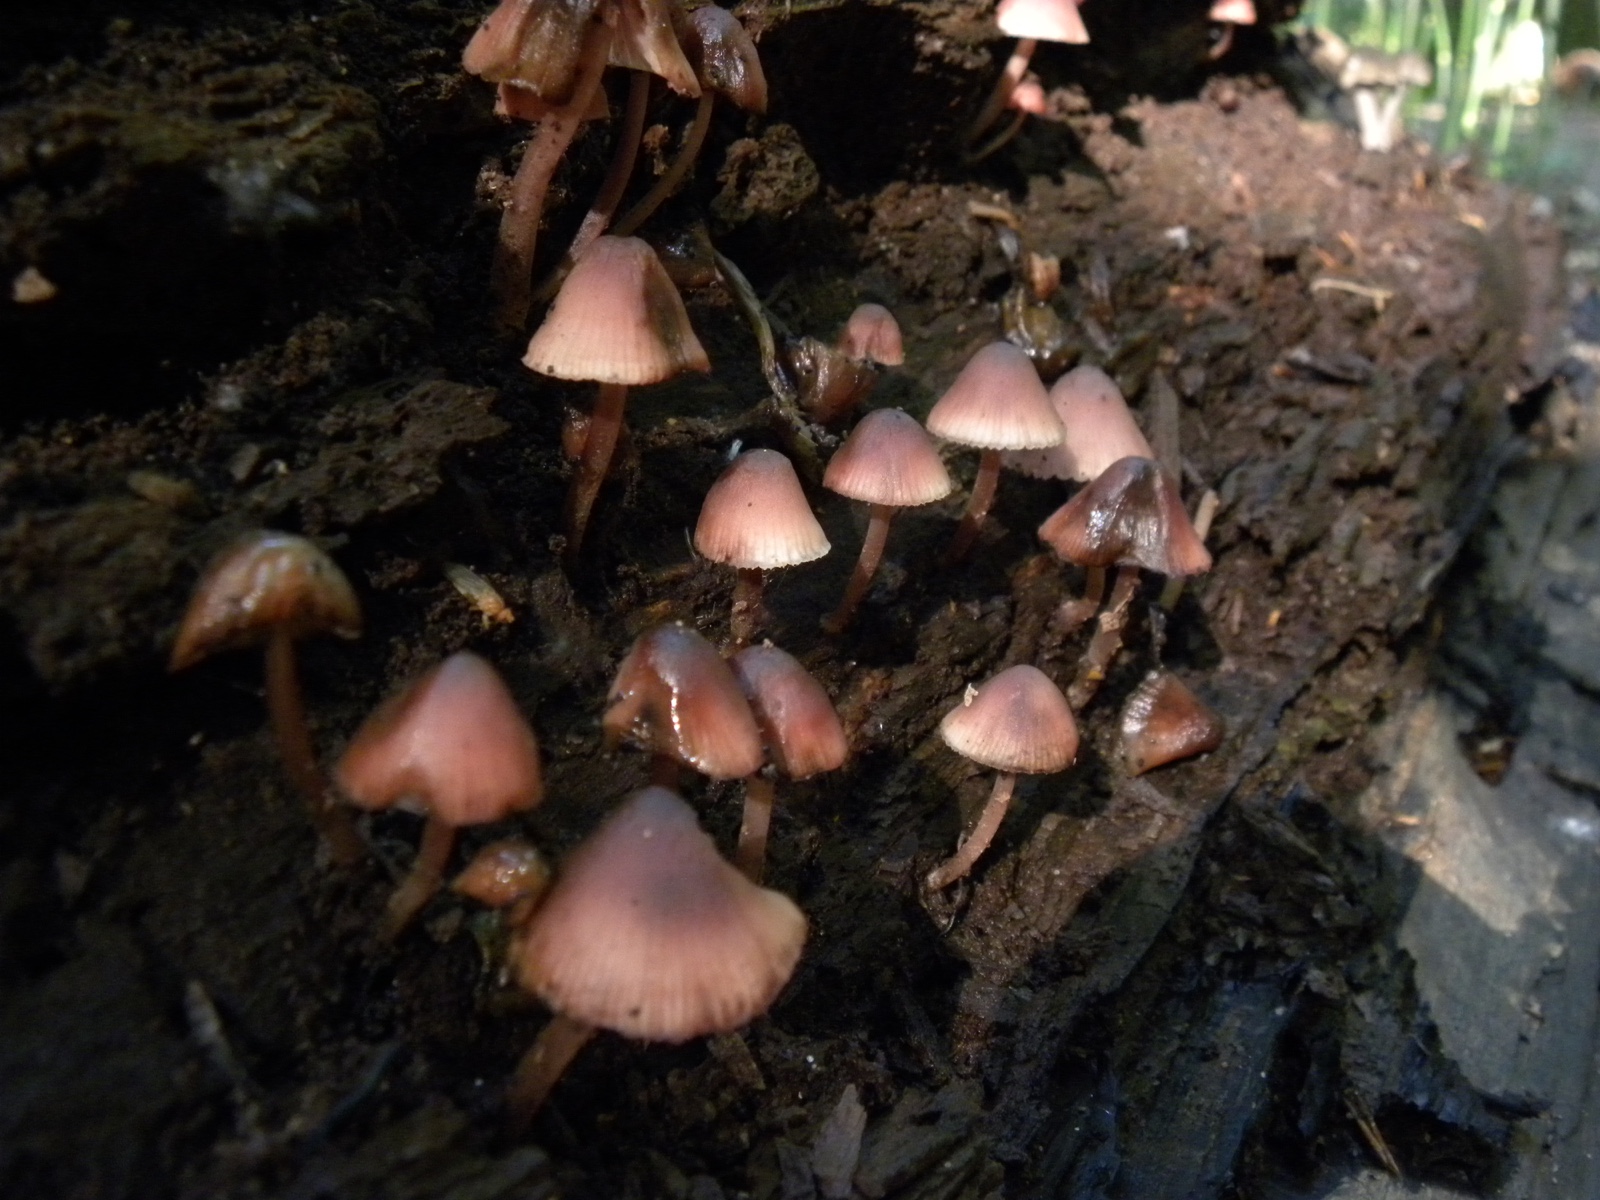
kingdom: Fungi
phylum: Basidiomycota
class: Agaricomycetes
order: Agaricales
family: Mycenaceae
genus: Mycena
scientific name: Mycena haematopus
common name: blødende huesvamp
